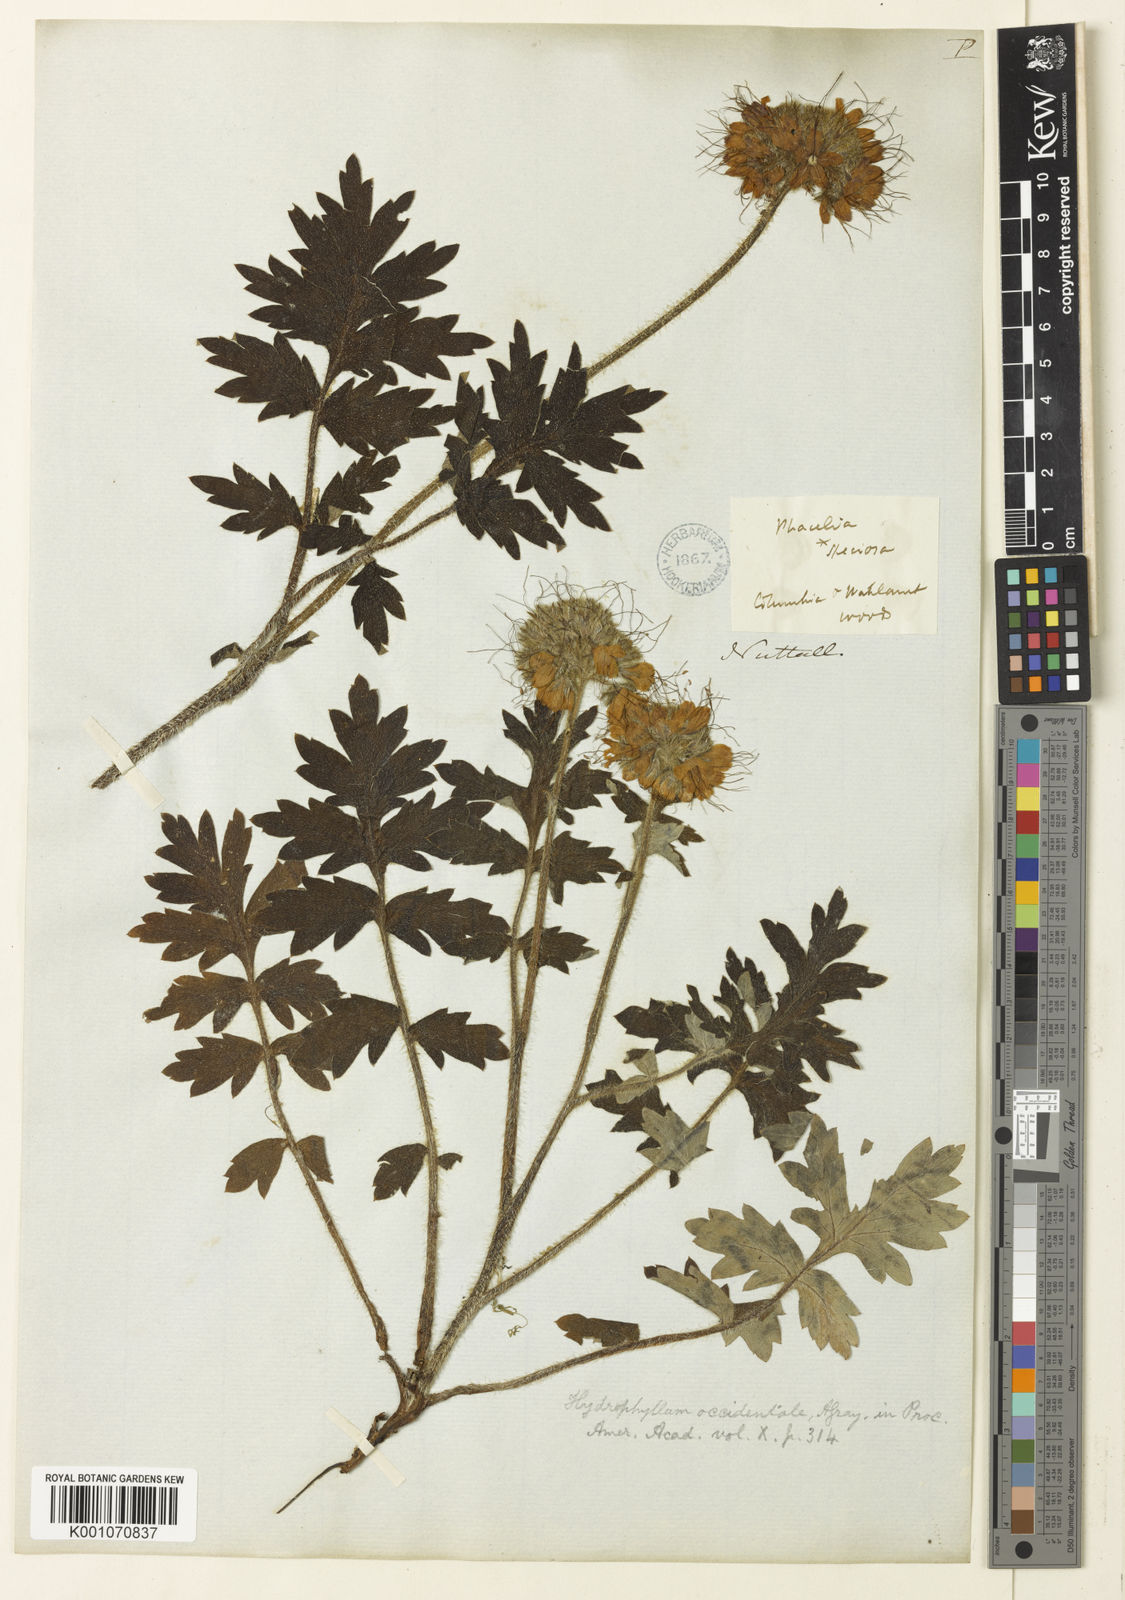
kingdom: Plantae
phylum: Tracheophyta
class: Magnoliopsida
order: Boraginales
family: Hydrophyllaceae
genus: Hydrophyllum
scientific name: Hydrophyllum occidentale
